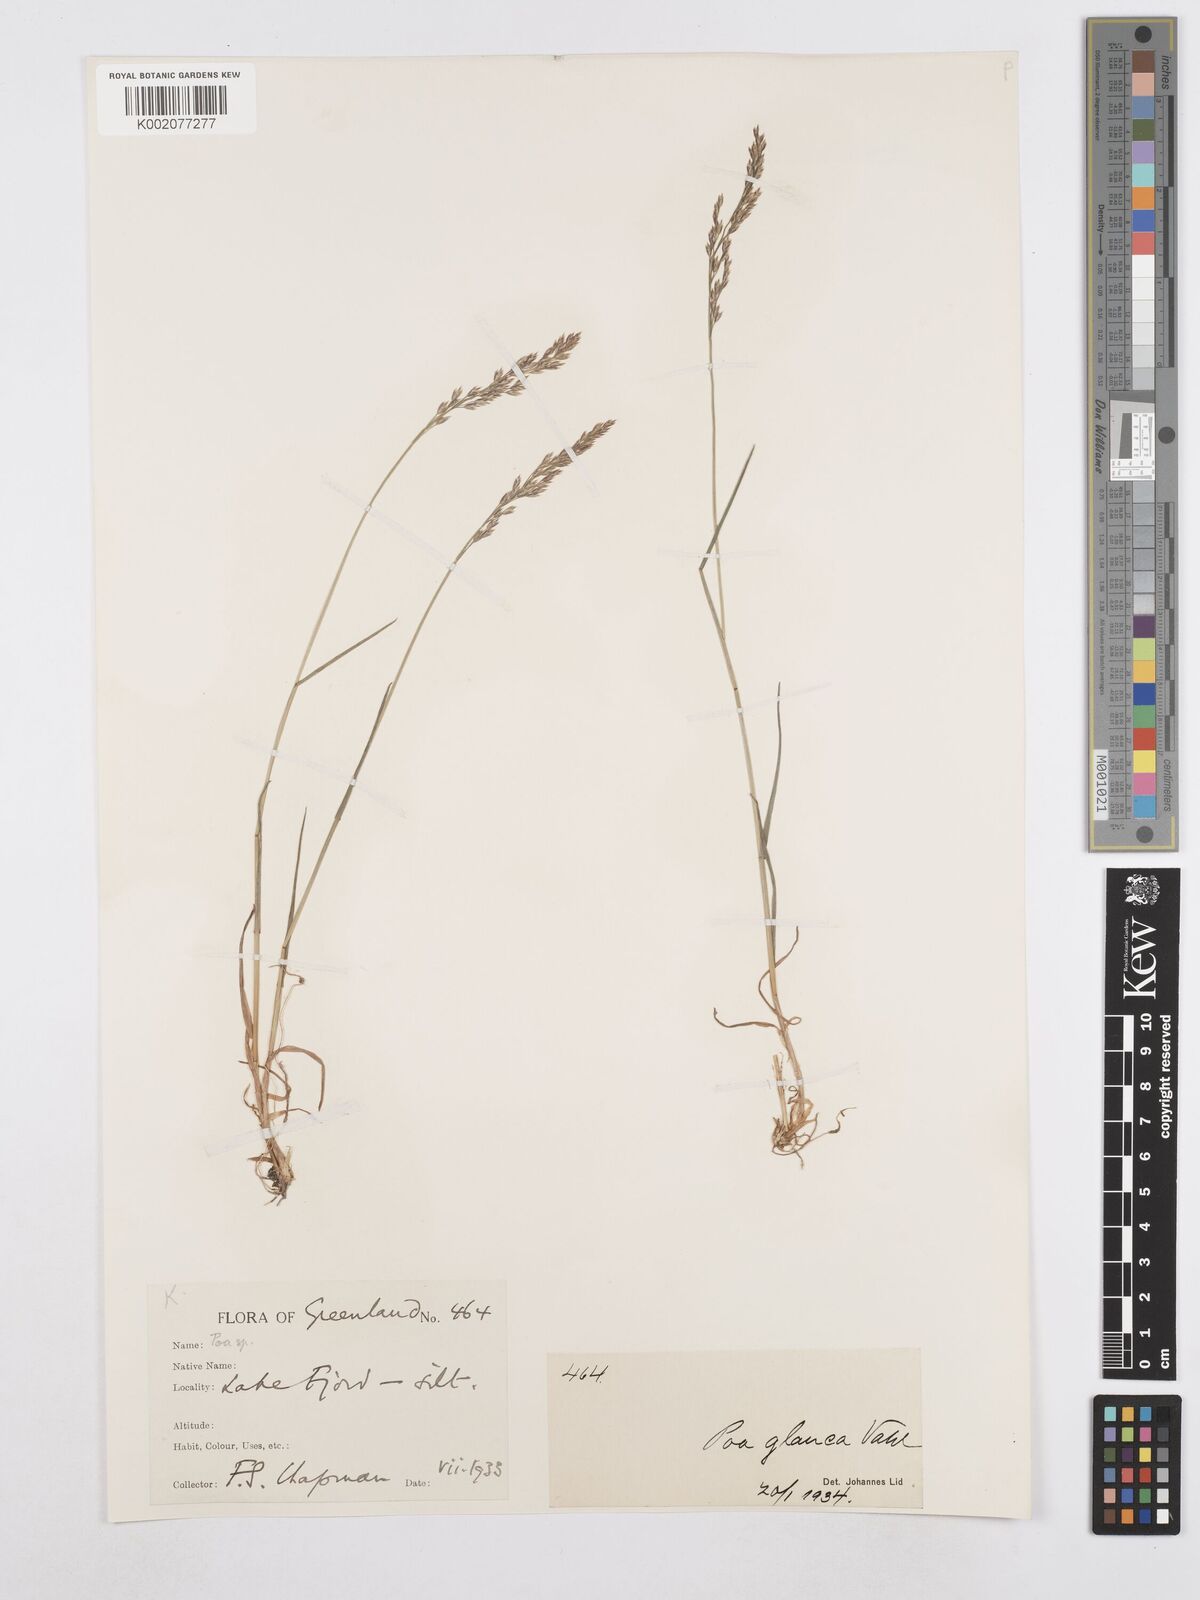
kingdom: Plantae
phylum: Tracheophyta
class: Liliopsida
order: Poales
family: Poaceae
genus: Poa
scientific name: Poa glauca
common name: Glaucous bluegrass
